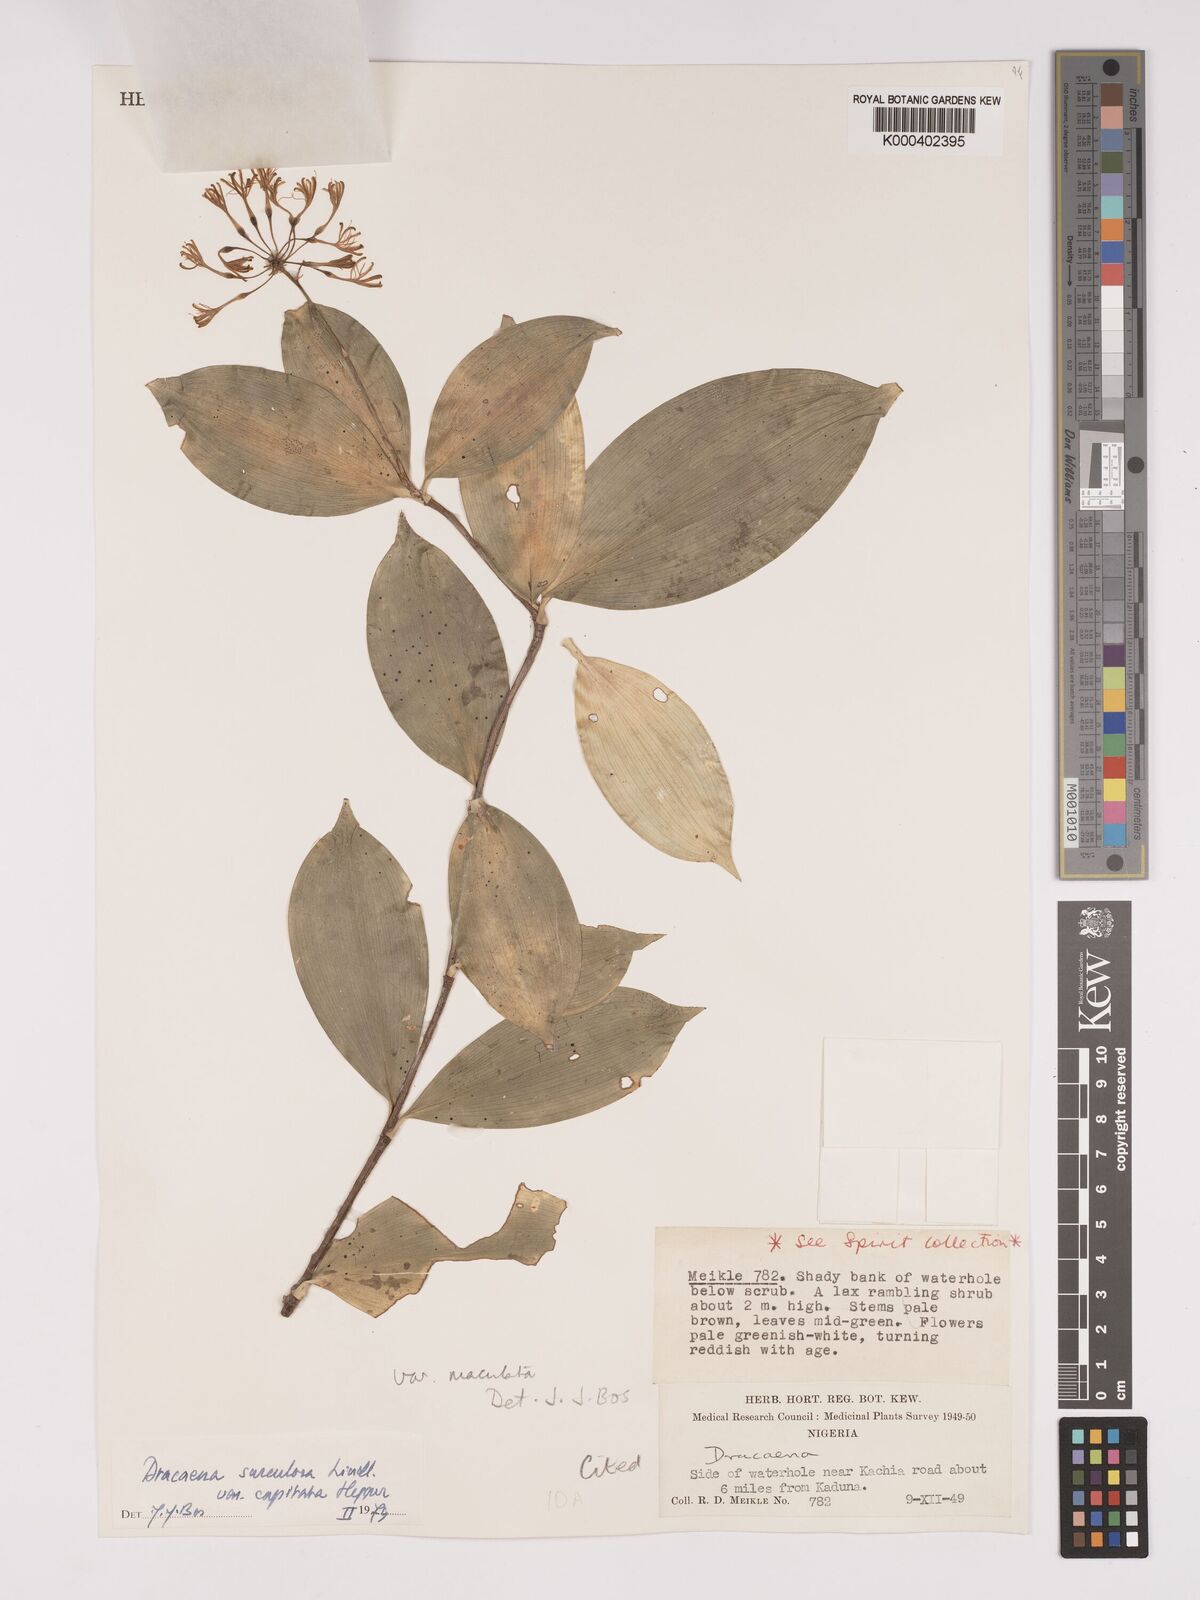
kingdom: Plantae
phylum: Tracheophyta
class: Liliopsida
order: Asparagales
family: Asparagaceae
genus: Dracaena
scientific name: Dracaena surculosa
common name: Spotted dracaena
